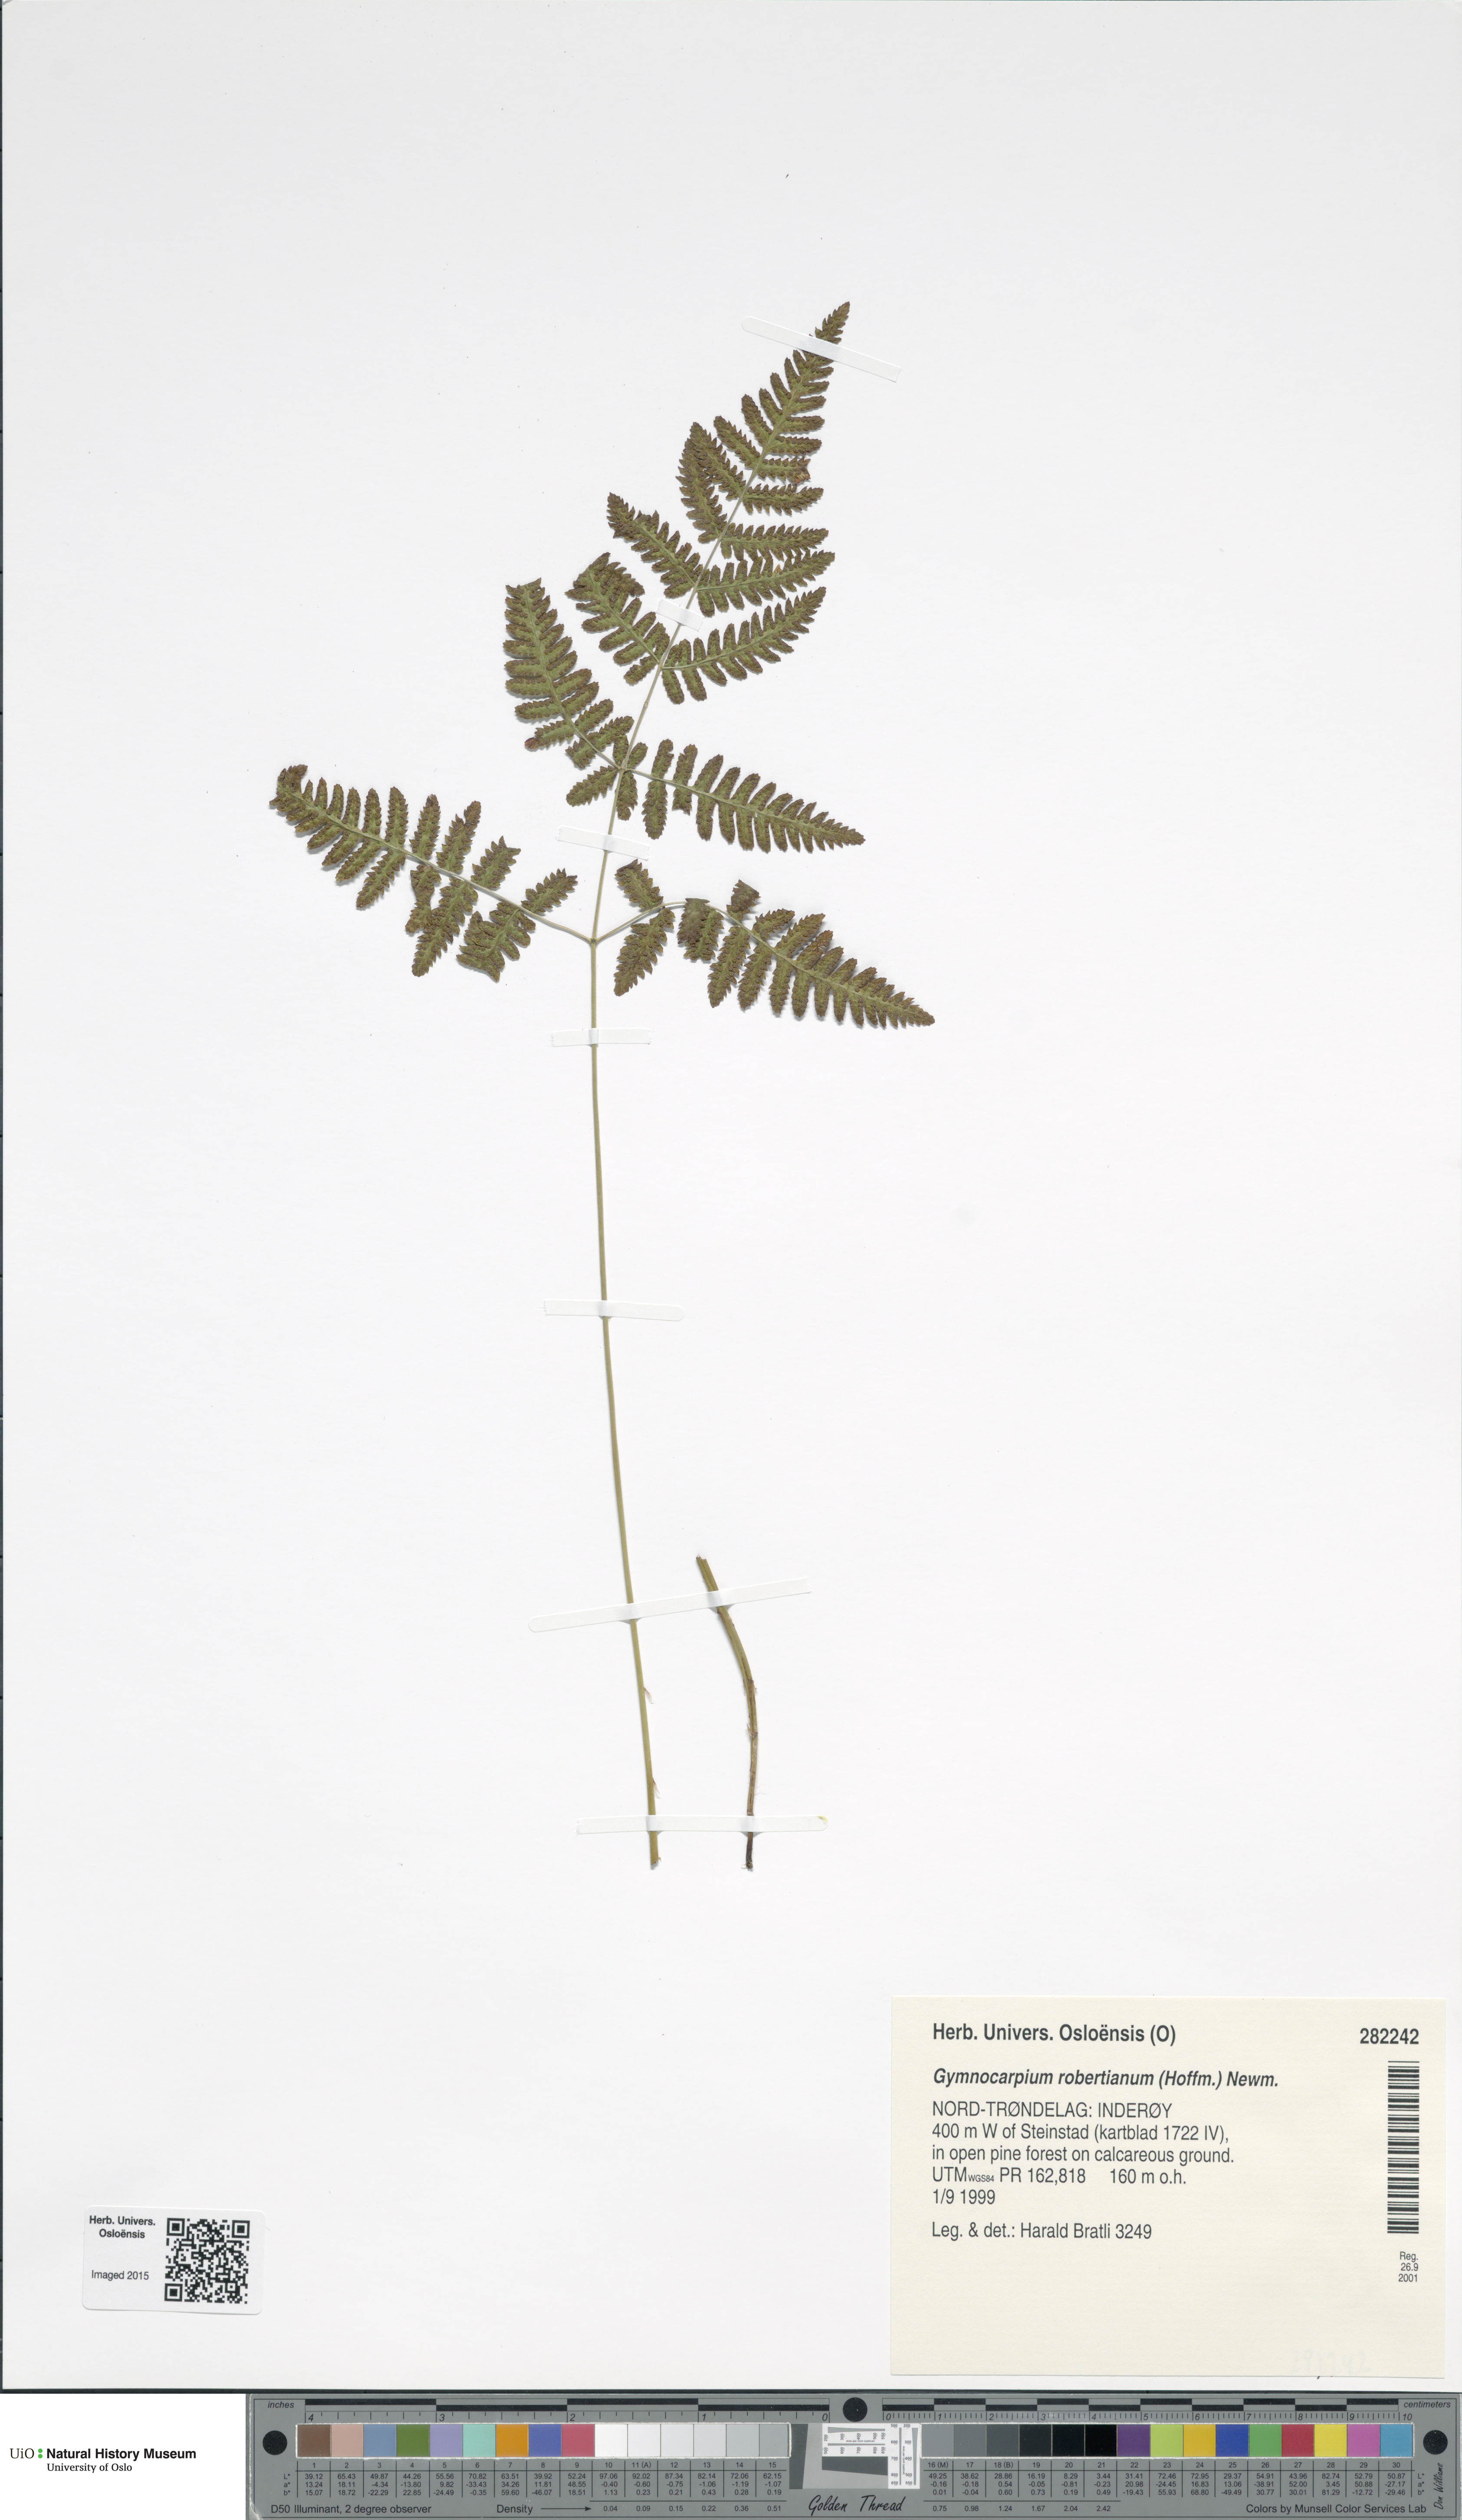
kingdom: Plantae
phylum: Tracheophyta
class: Polypodiopsida
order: Polypodiales
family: Cystopteridaceae
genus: Gymnocarpium
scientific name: Gymnocarpium robertianum
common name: Limestone fern
